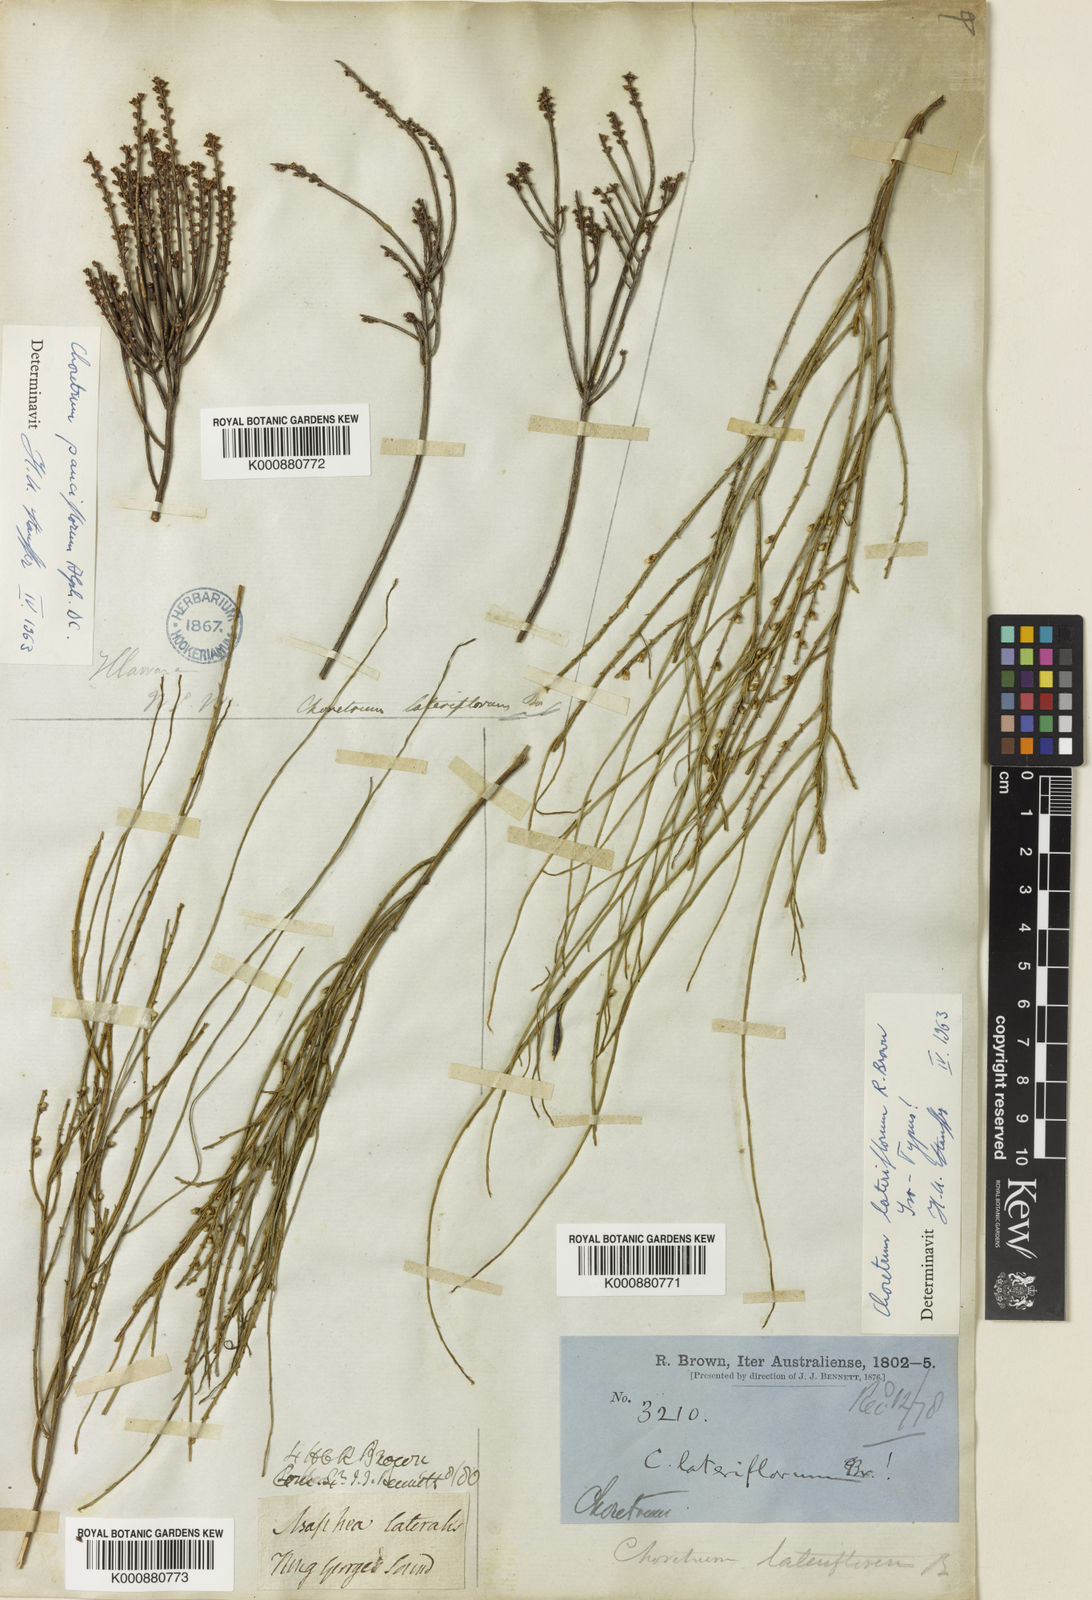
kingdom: Plantae
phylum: Tracheophyta
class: Magnoliopsida
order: Santalales
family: Amphorogynaceae
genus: Choretrum
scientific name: Choretrum lateriflorum
